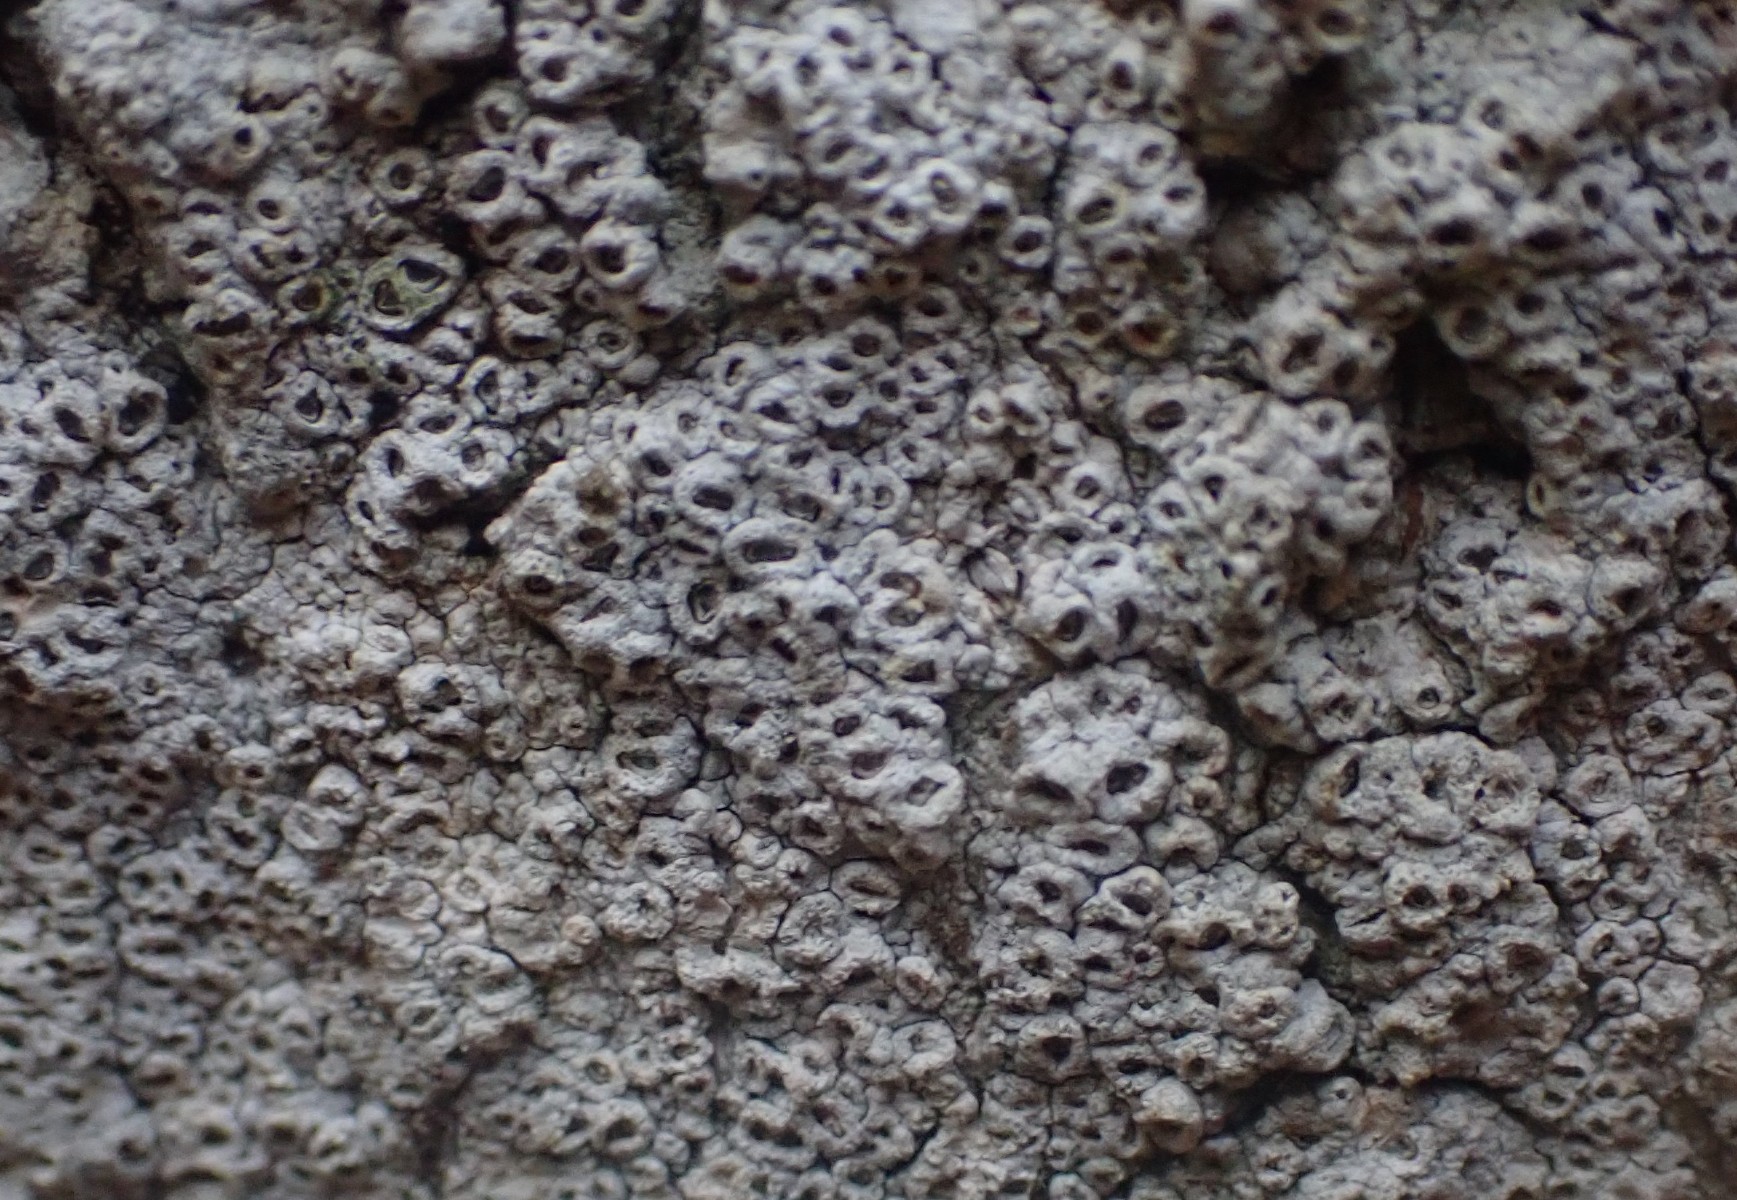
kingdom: Fungi
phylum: Ascomycota
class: Lecanoromycetes
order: Ostropales
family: Graphidaceae
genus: Thelotrema
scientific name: Thelotrema lepadinum
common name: almindelig slørkantlav
